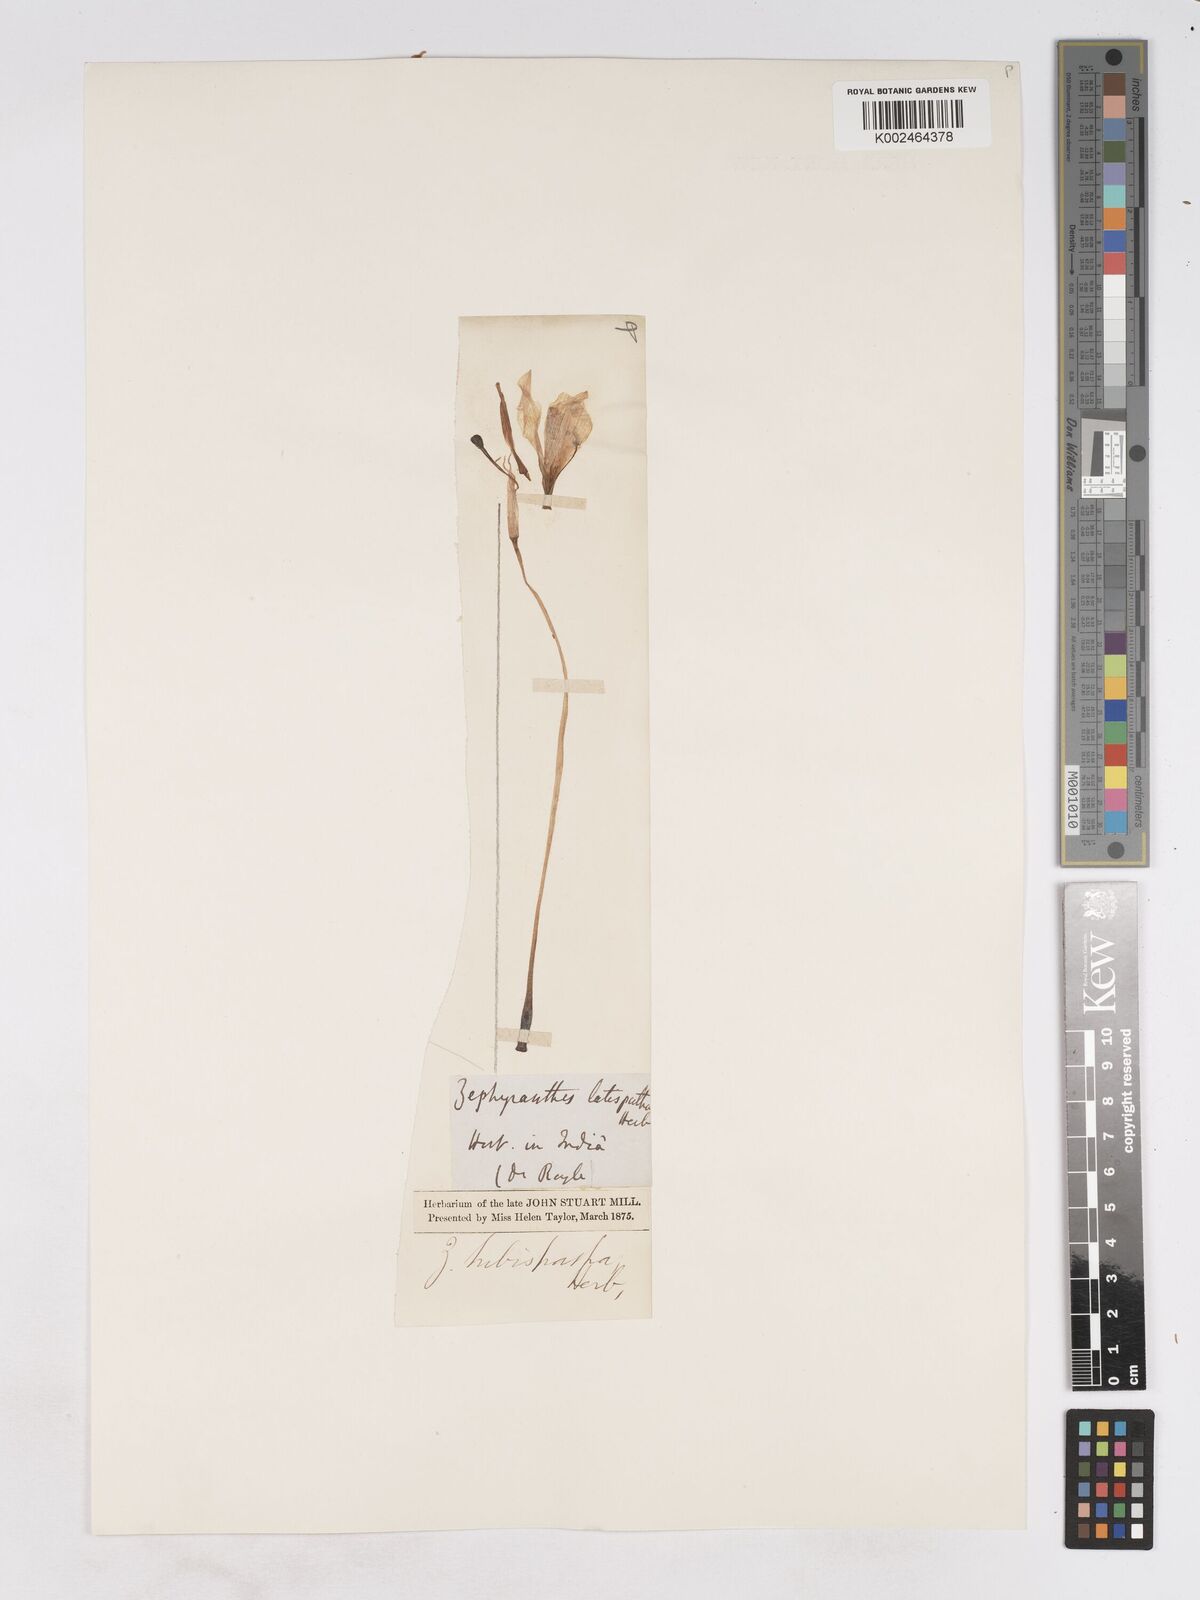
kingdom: Plantae
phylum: Tracheophyta
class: Liliopsida
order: Asparagales
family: Amaryllidaceae
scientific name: Amaryllidaceae
